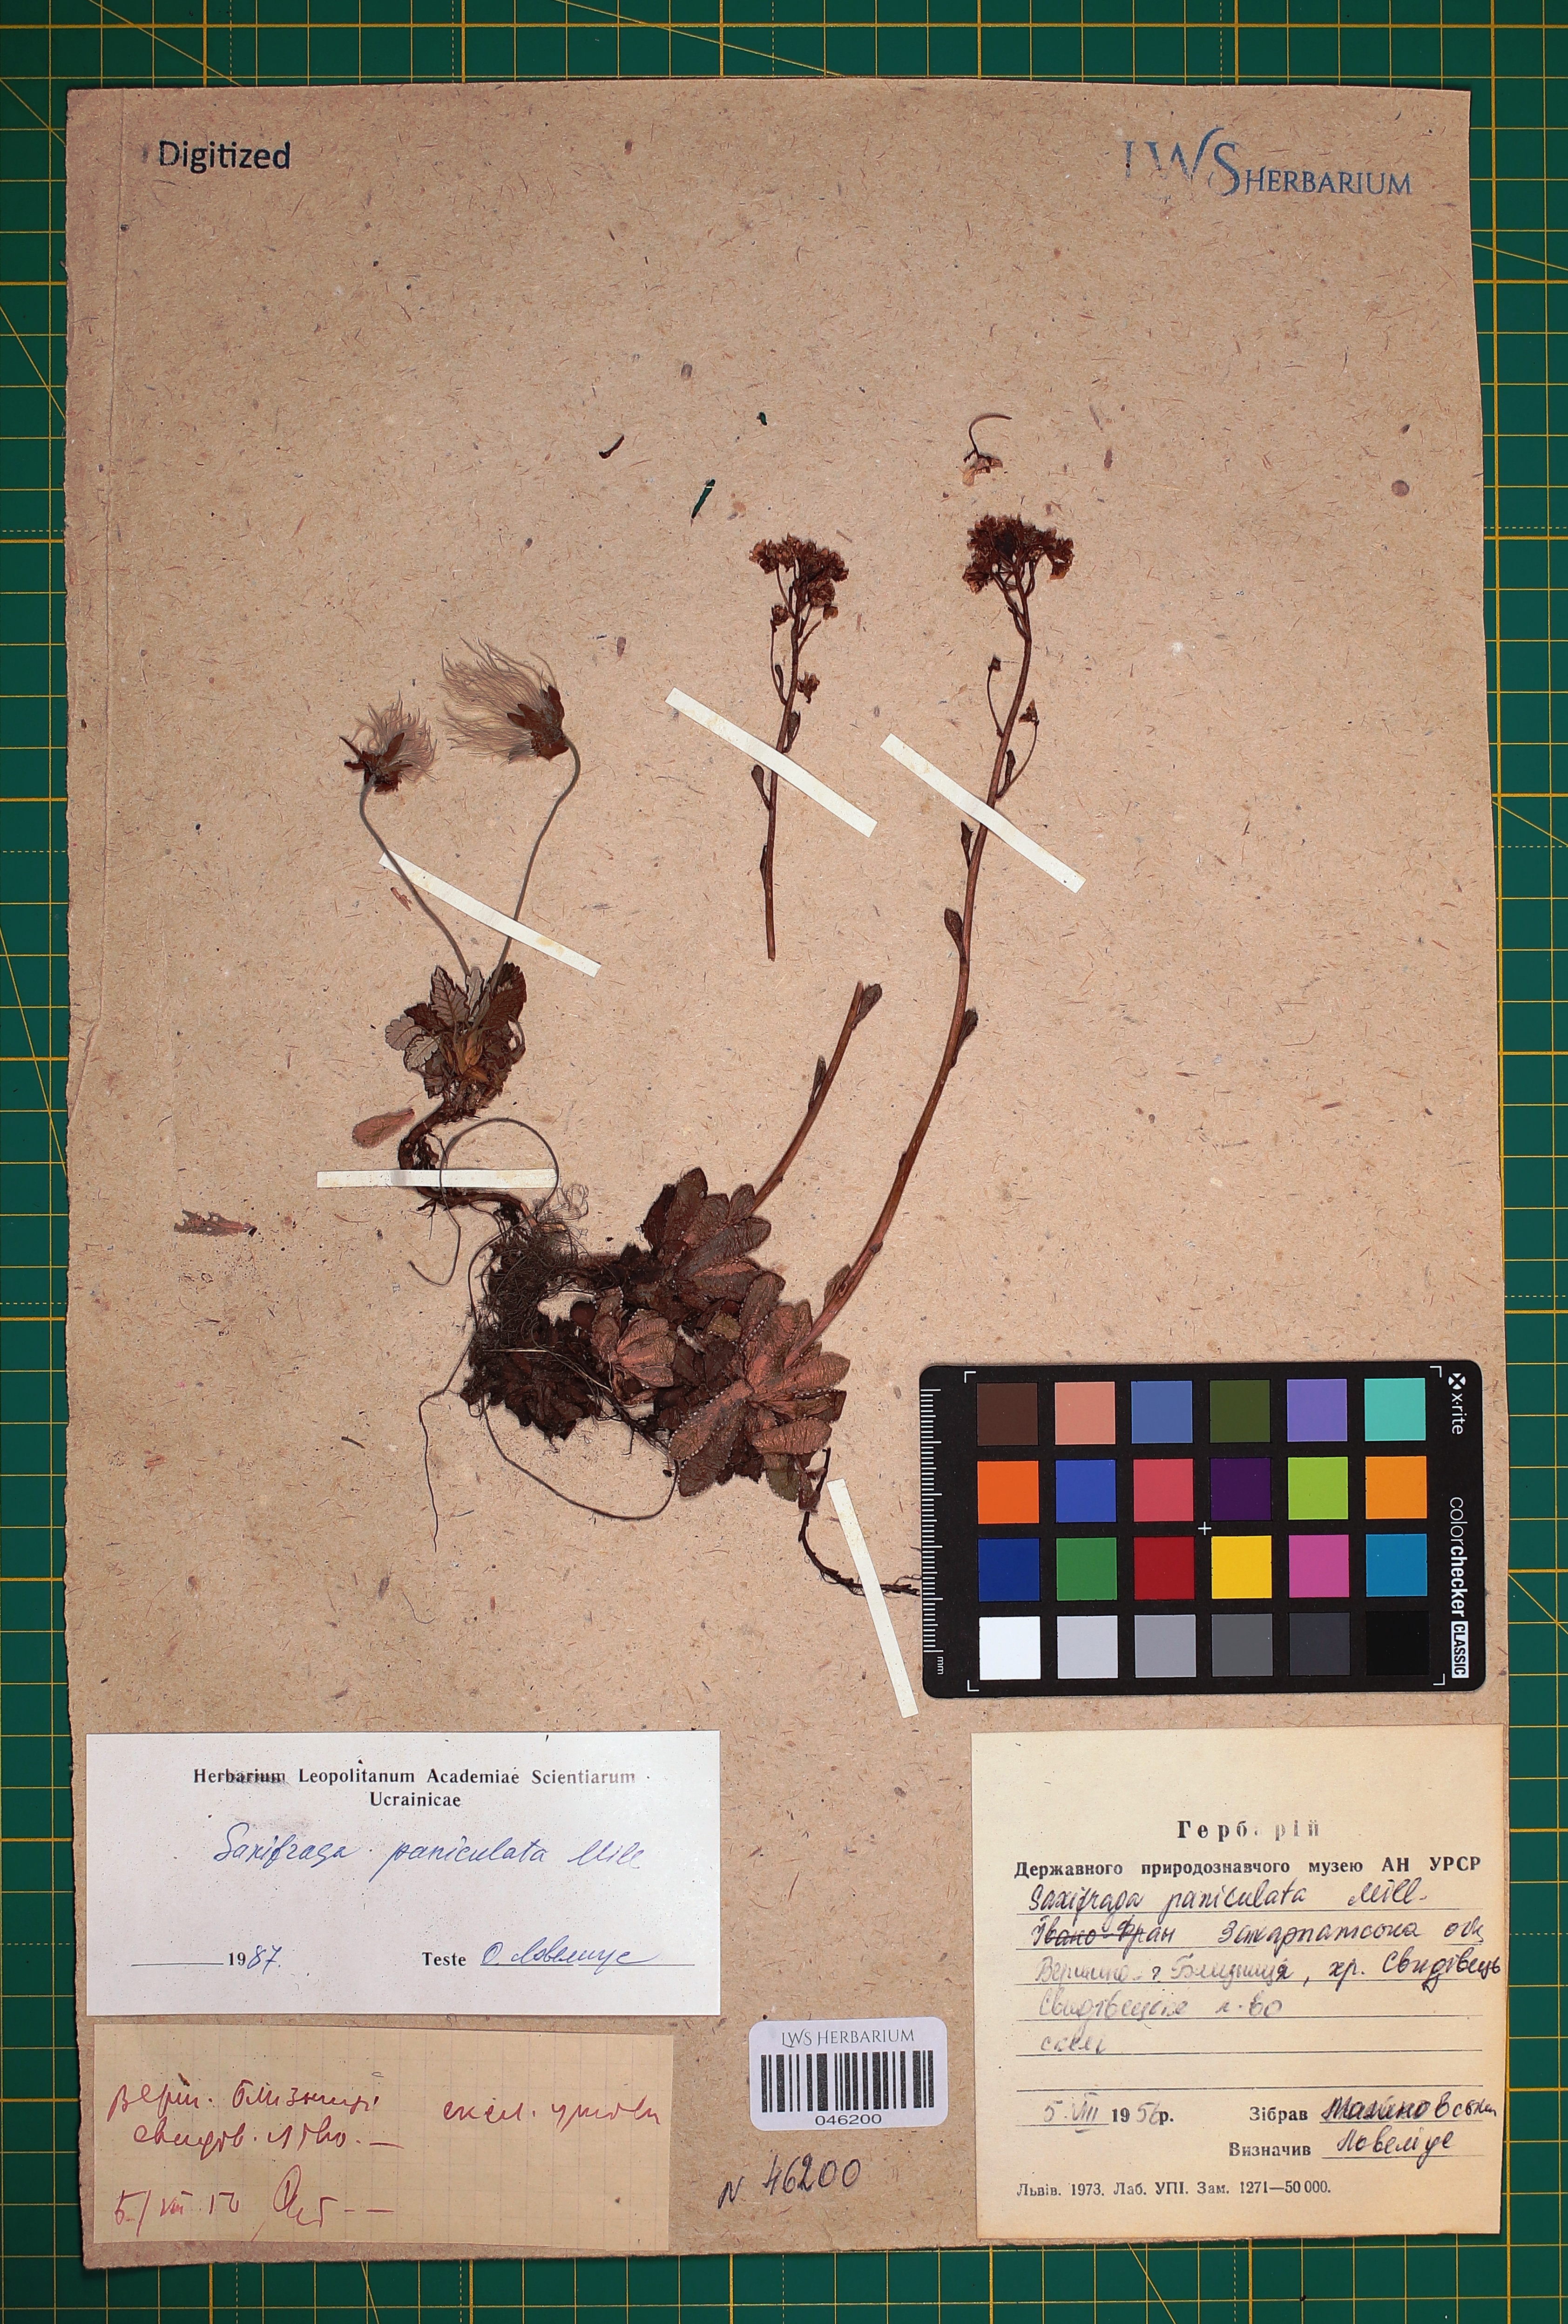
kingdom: Plantae
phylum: Tracheophyta
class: Magnoliopsida
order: Saxifragales
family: Saxifragaceae
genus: Saxifraga
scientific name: Saxifraga paniculata
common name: Livelong saxifrage
